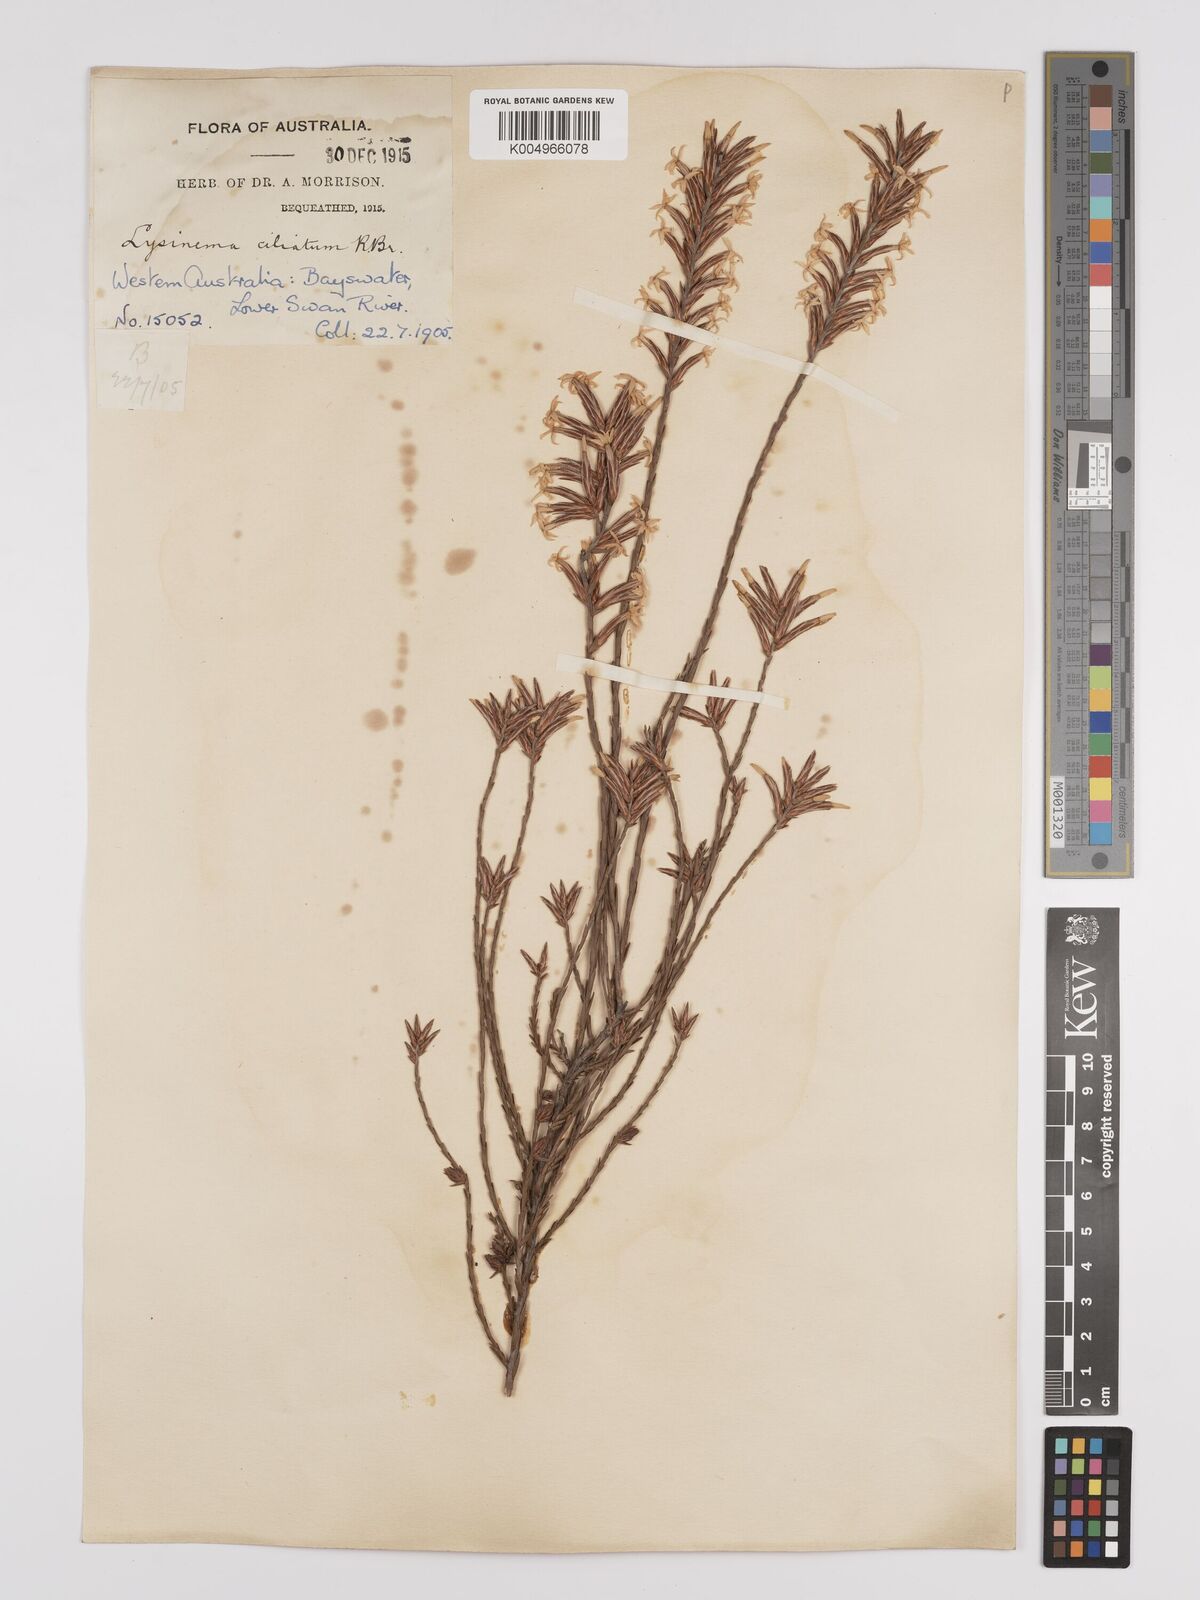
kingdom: Plantae
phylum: Tracheophyta
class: Magnoliopsida
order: Ericales
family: Ericaceae
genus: Lysinema
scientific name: Lysinema ciliatum
